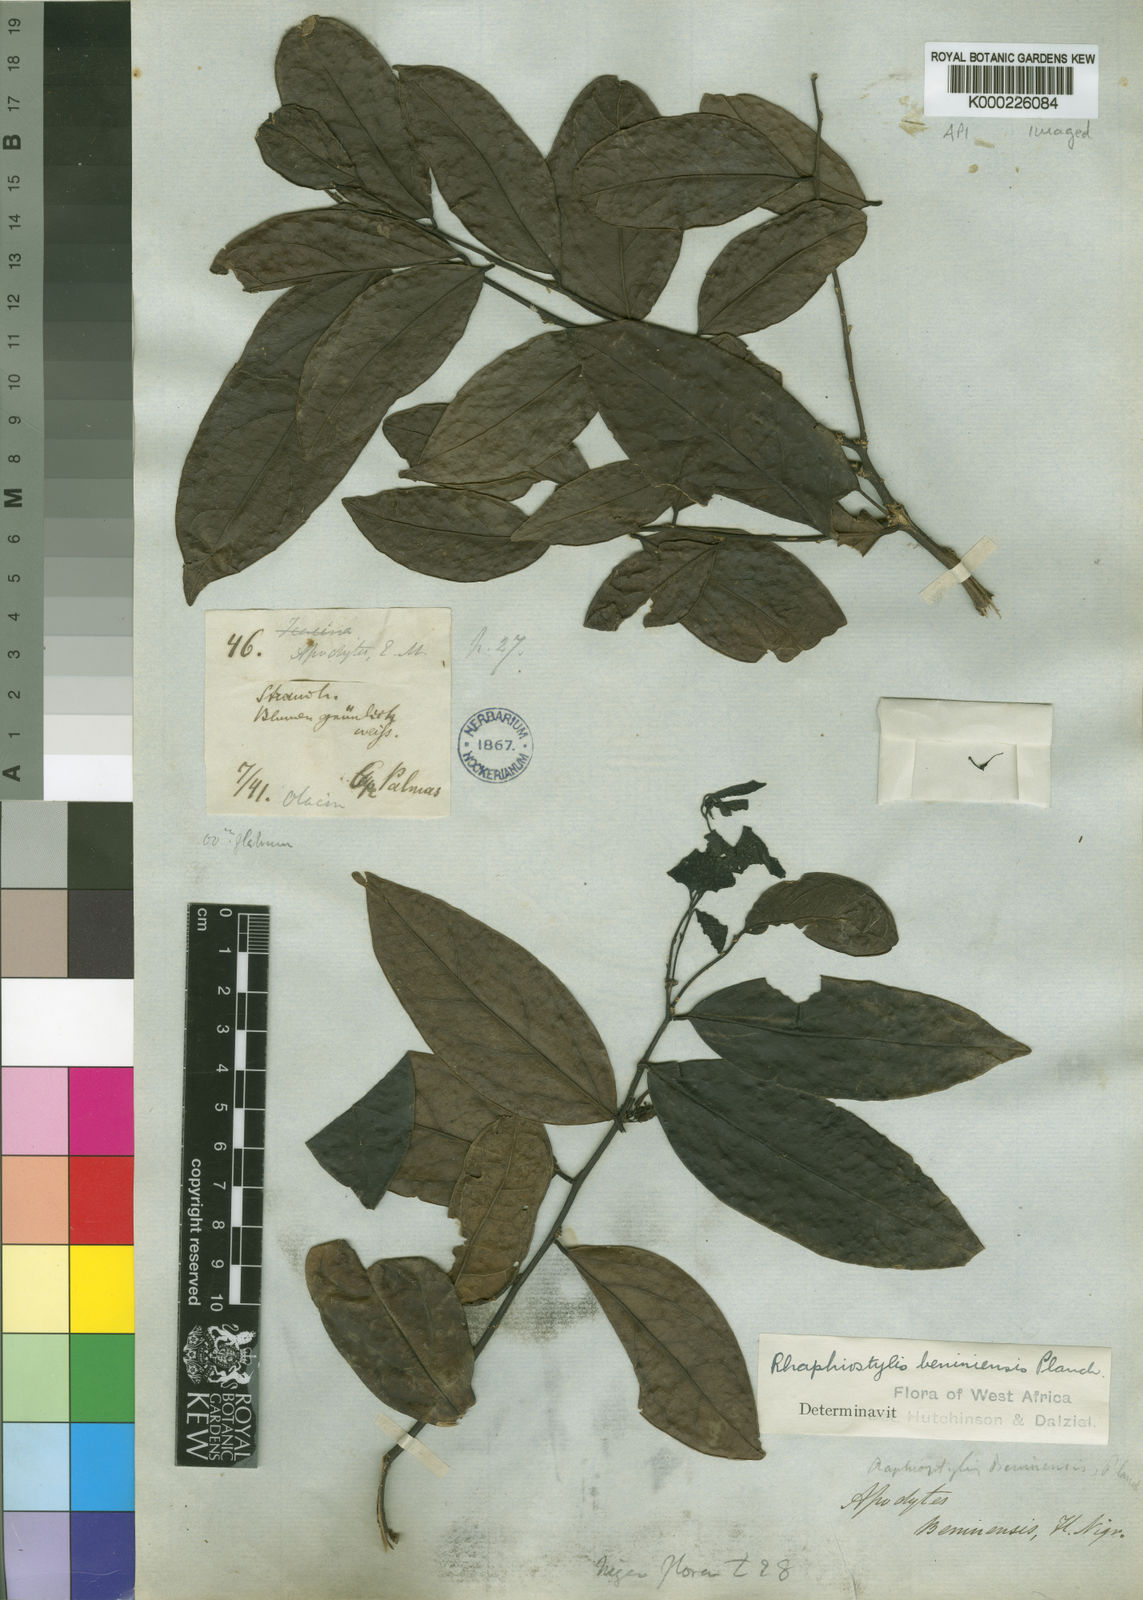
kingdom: Plantae
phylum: Tracheophyta
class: Magnoliopsida
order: Metteniusales
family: Metteniusaceae
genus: Rhaphiostylis
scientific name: Rhaphiostylis
